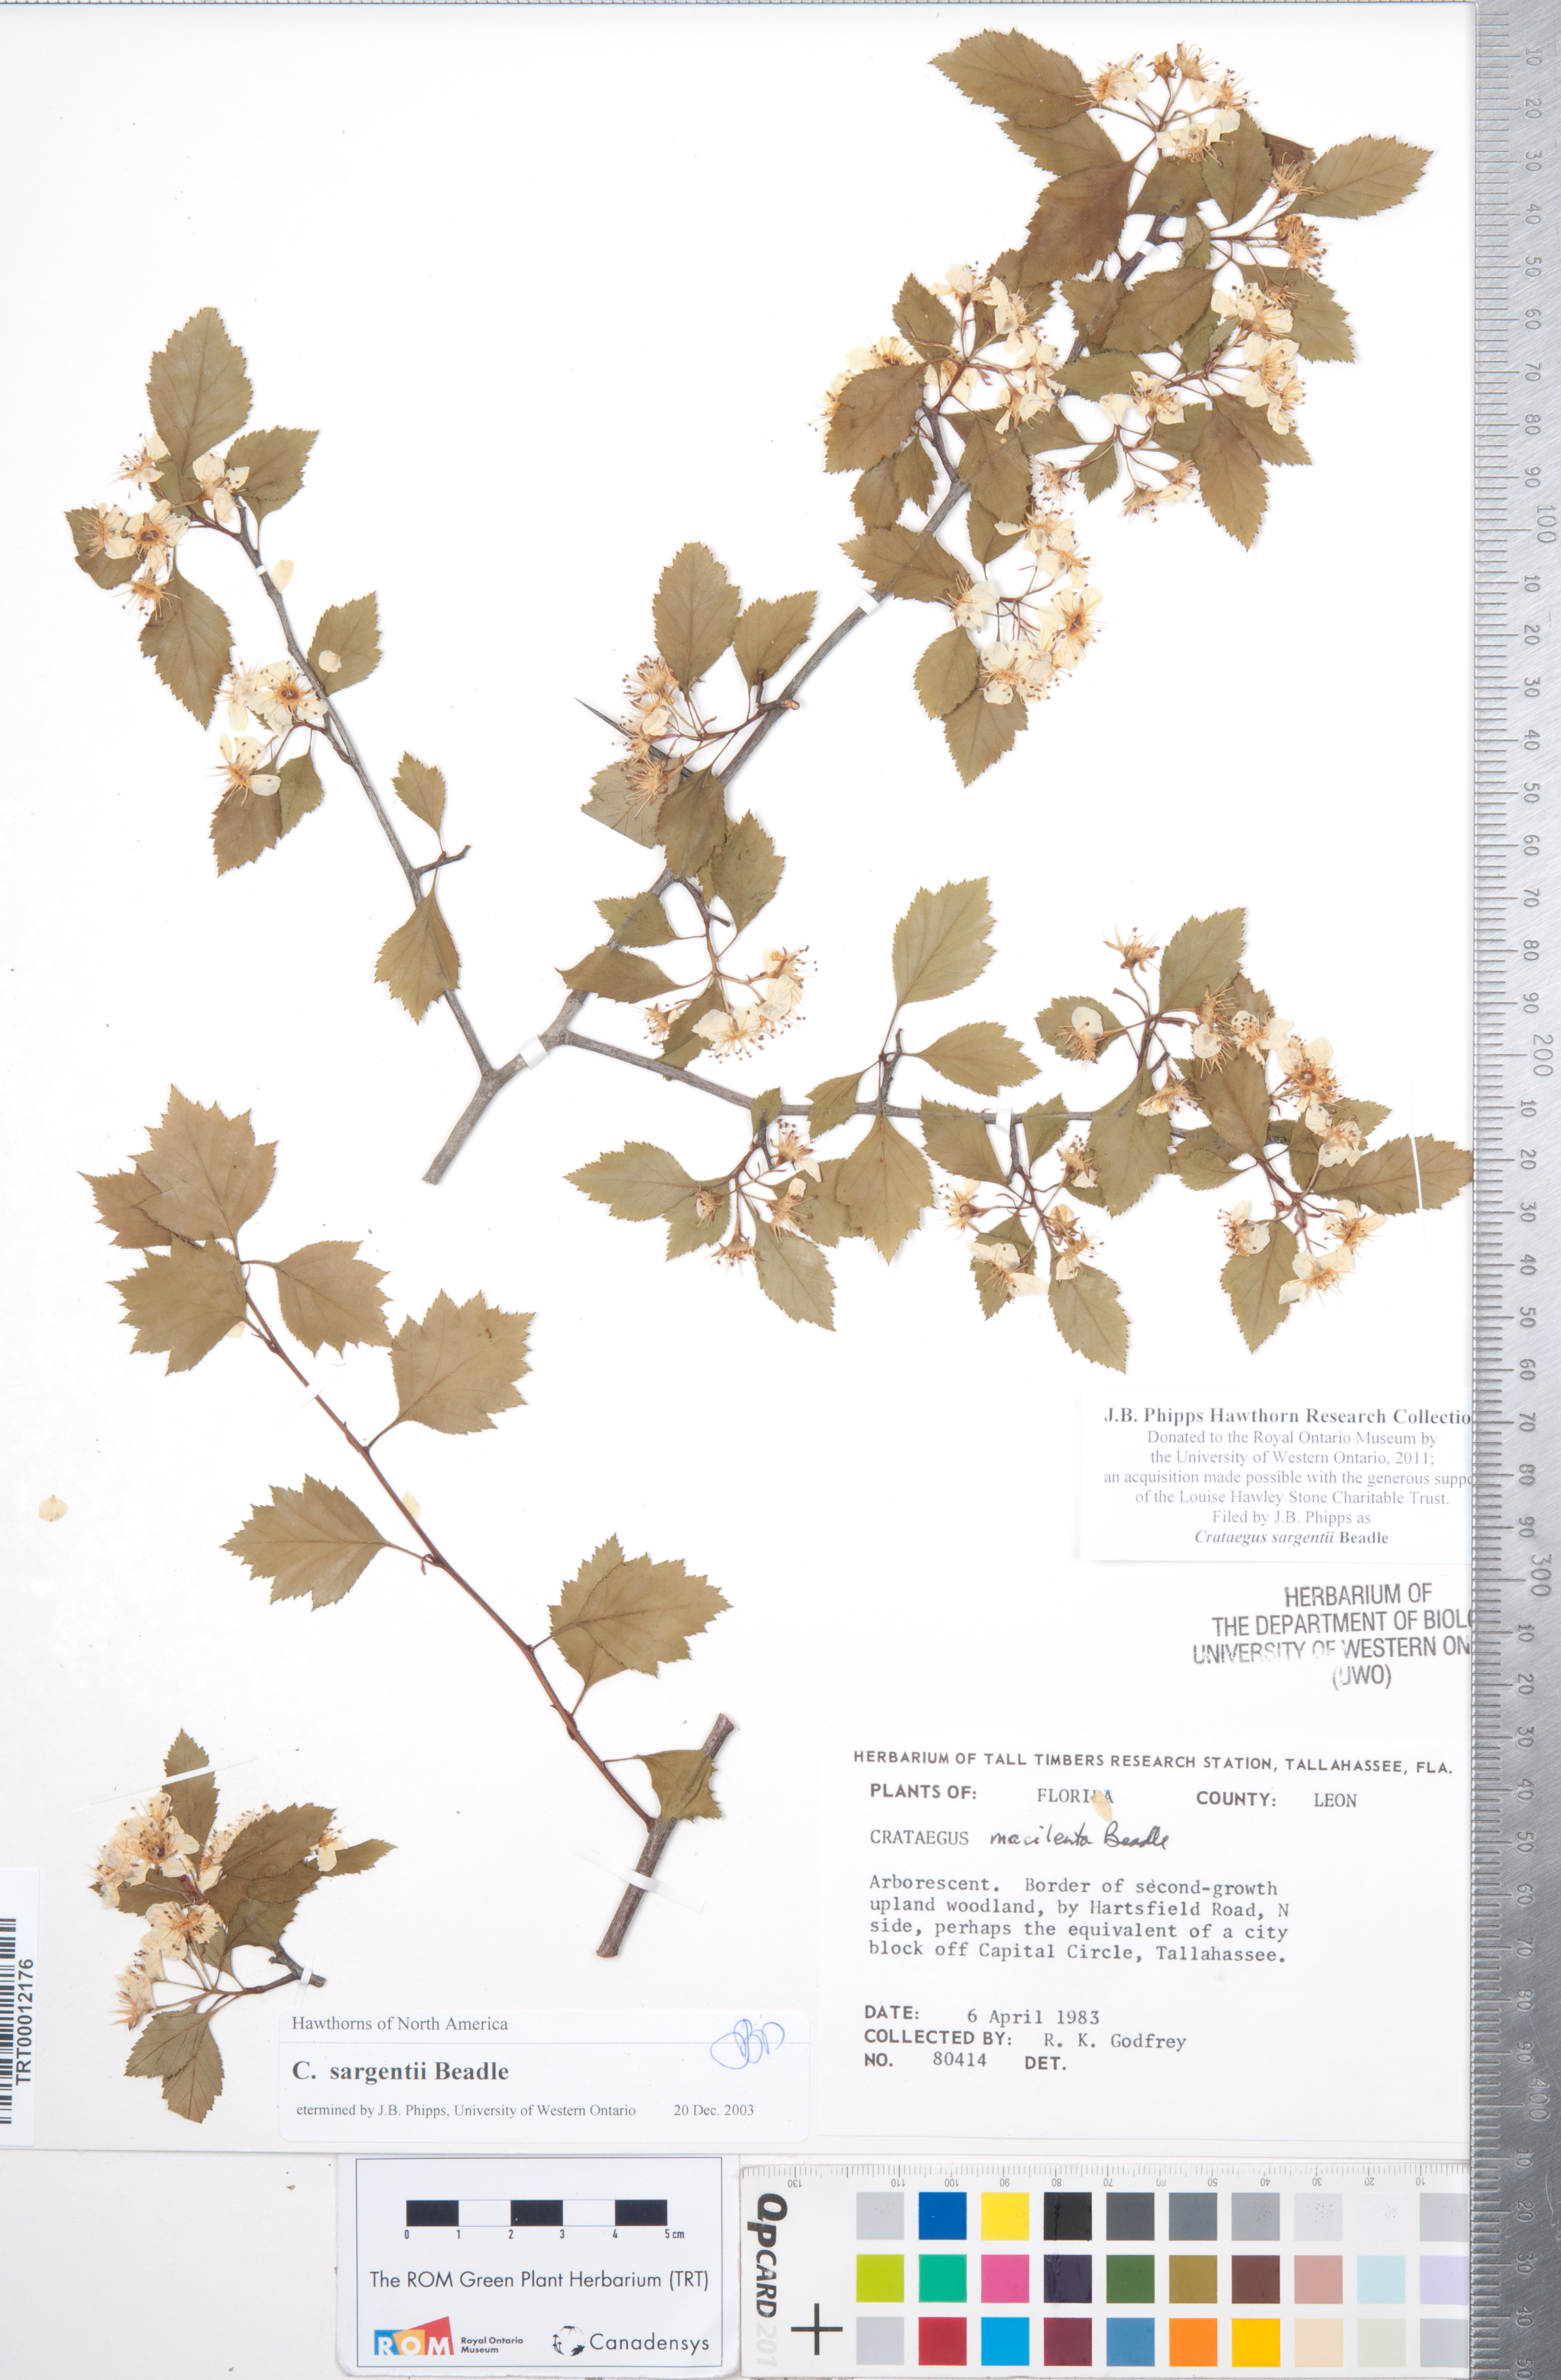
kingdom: Plantae
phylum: Tracheophyta
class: Magnoliopsida
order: Rosales
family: Rosaceae
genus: Crataegus
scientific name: Crataegus sargentii
